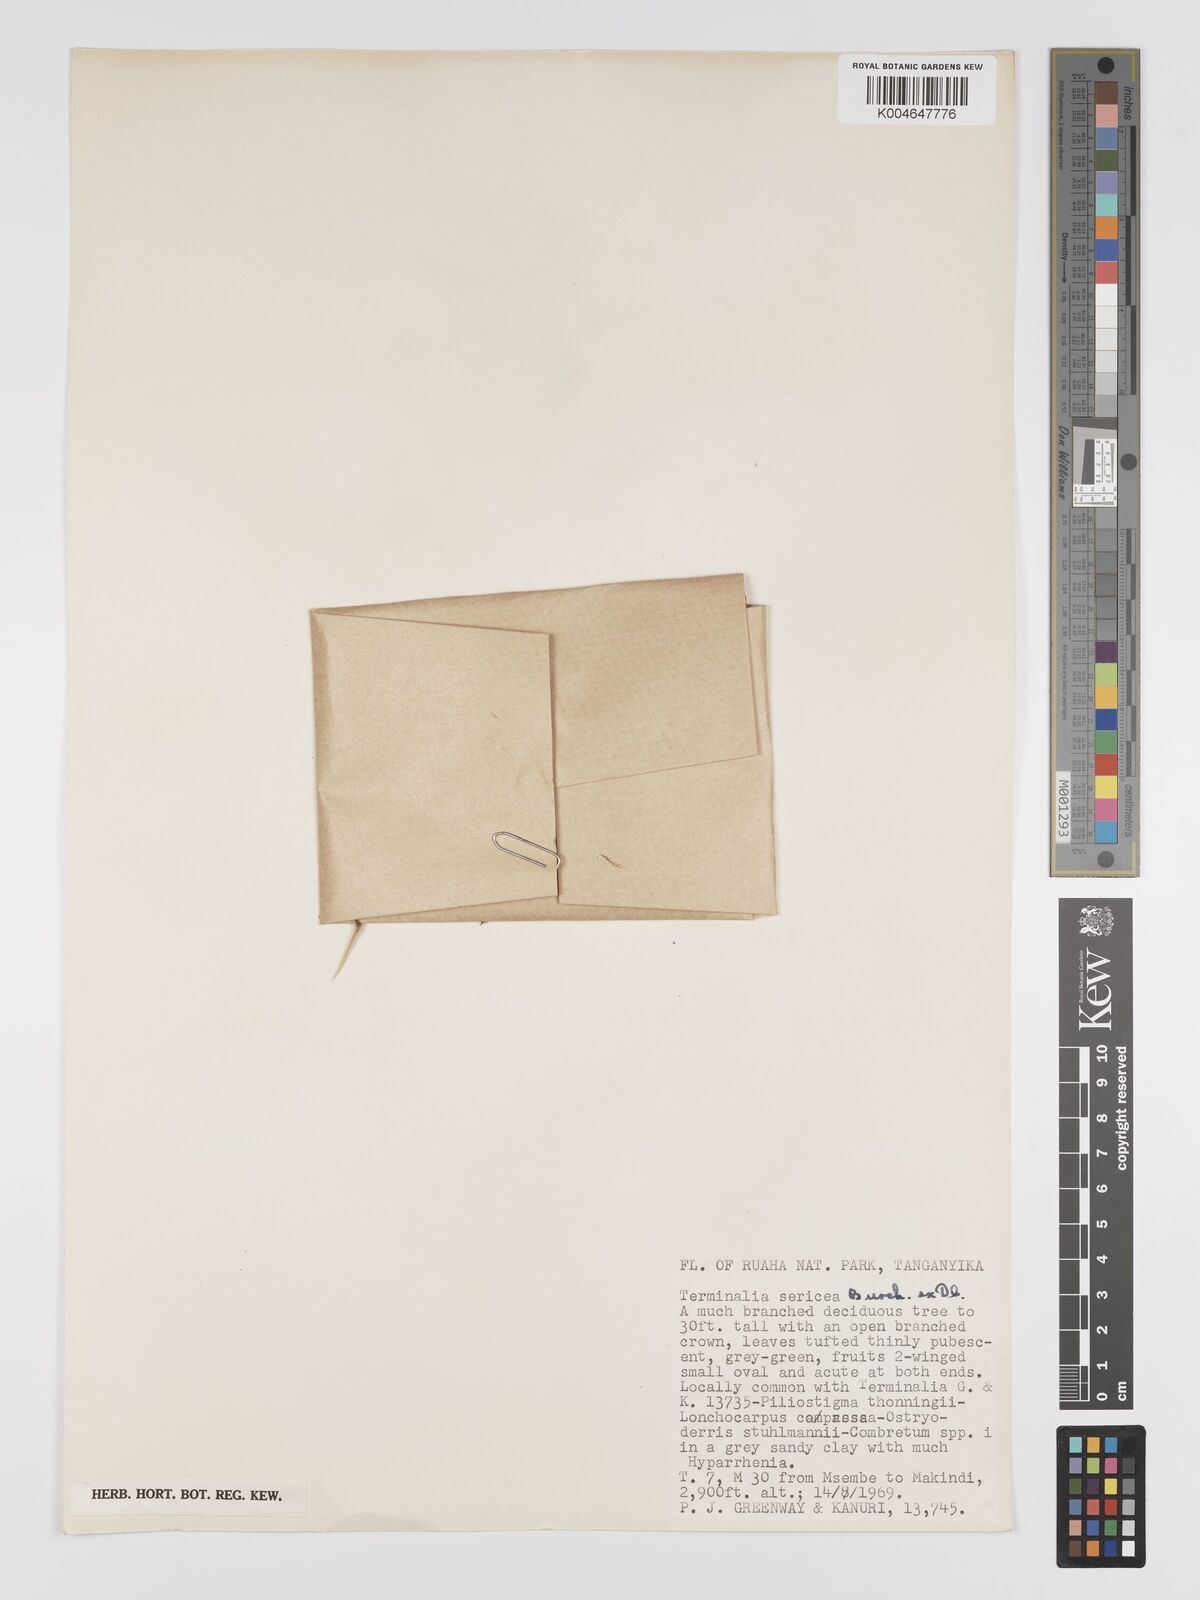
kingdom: Plantae
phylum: Tracheophyta
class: Magnoliopsida
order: Myrtales
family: Combretaceae
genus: Terminalia
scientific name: Terminalia
